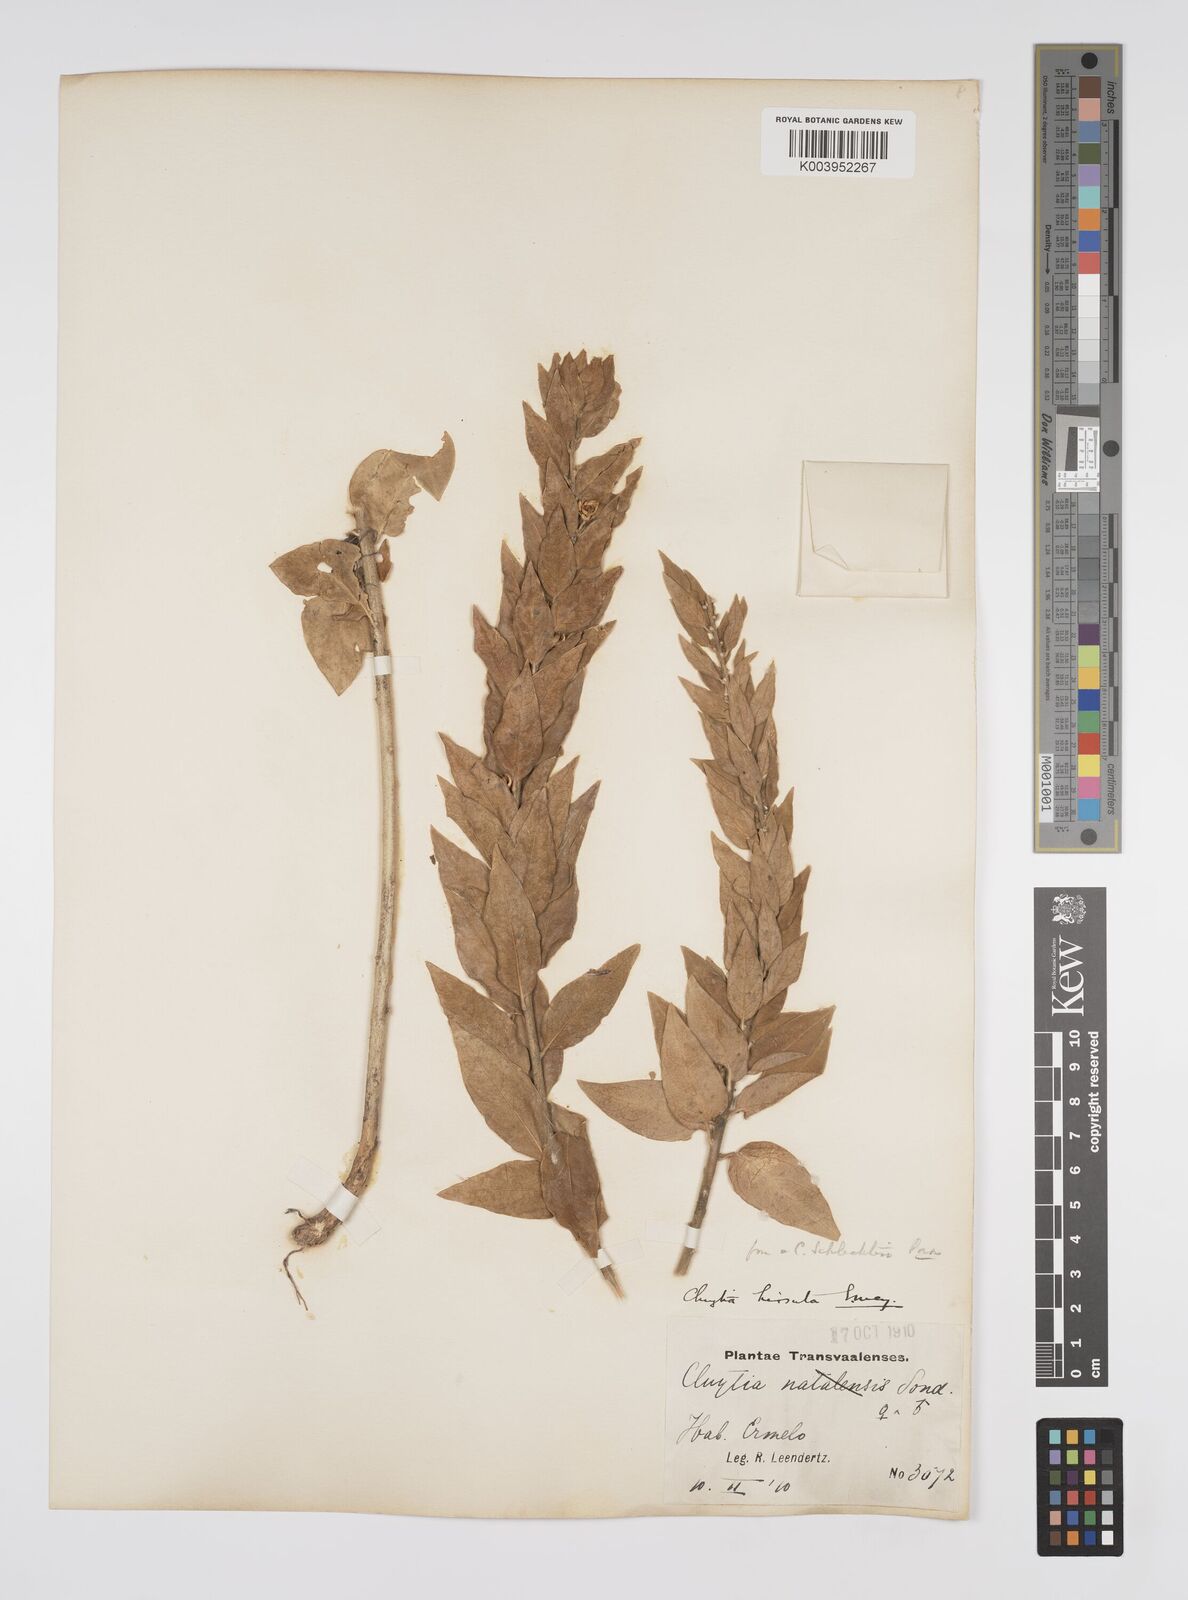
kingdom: Plantae
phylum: Tracheophyta
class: Magnoliopsida
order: Malpighiales
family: Peraceae
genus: Clutia
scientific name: Clutia affinis
